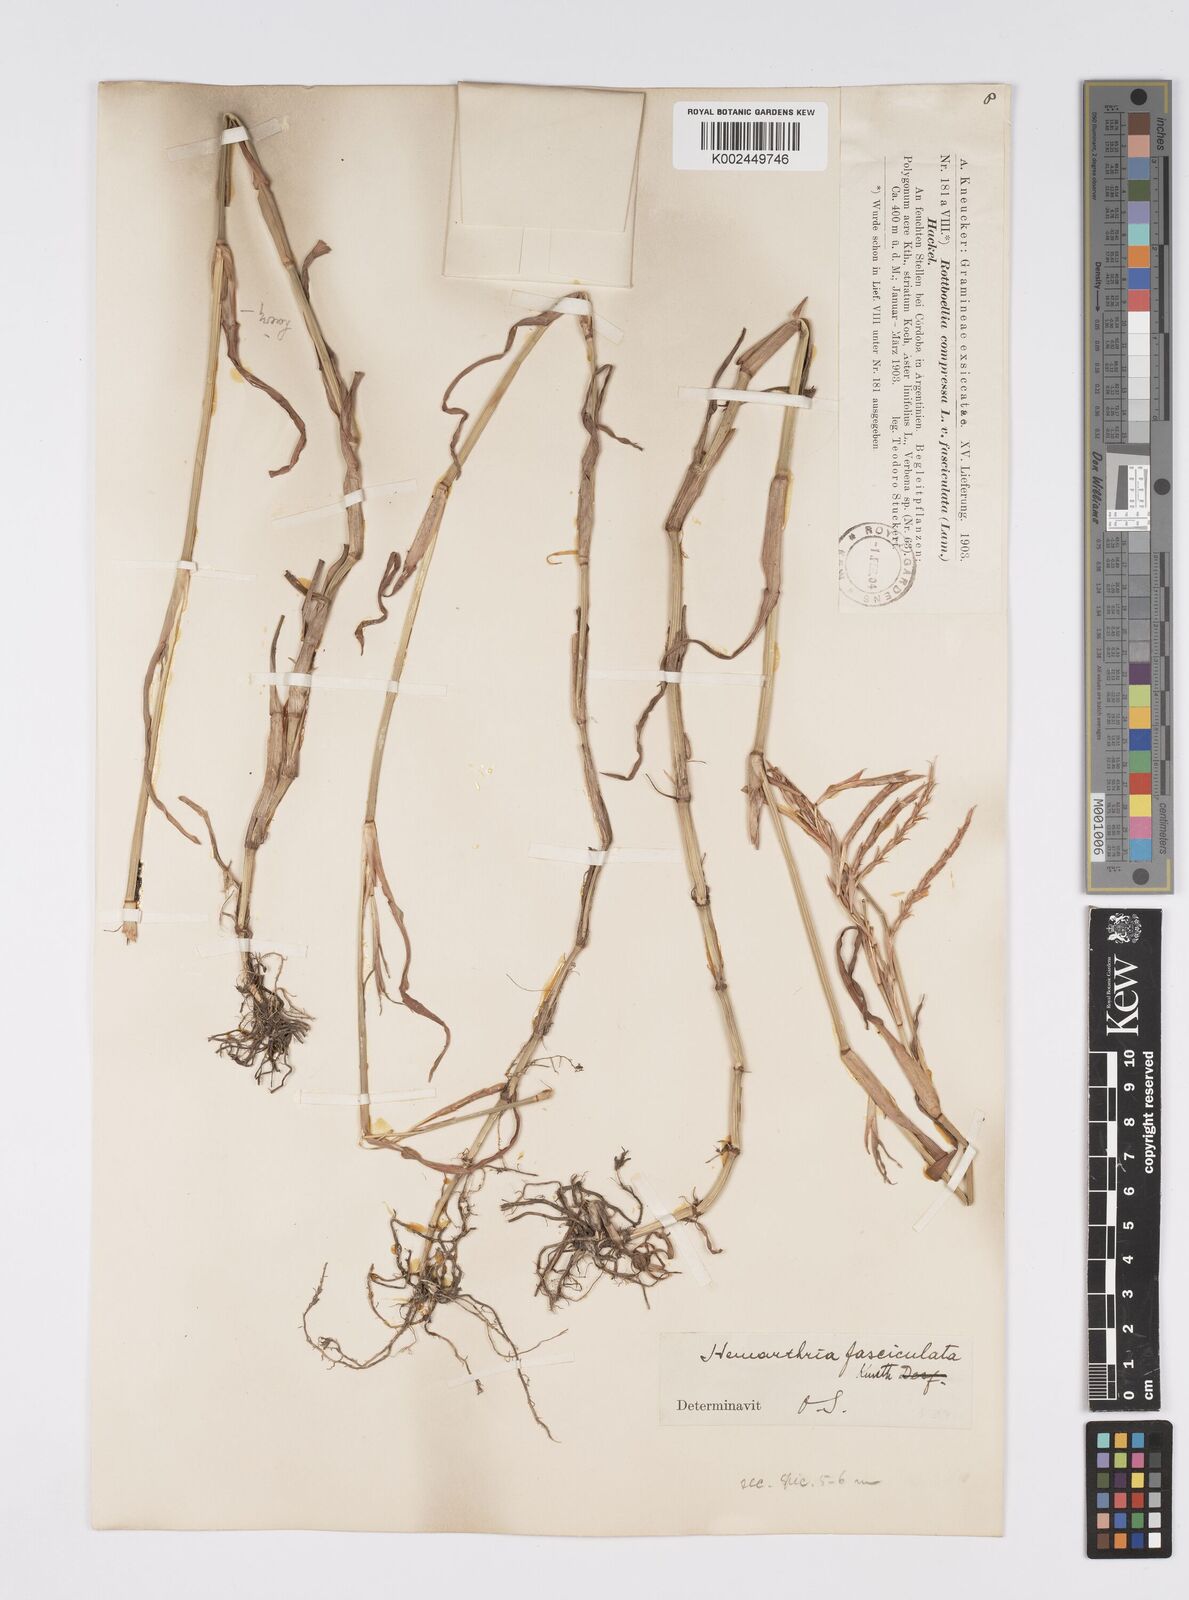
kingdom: Plantae
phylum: Tracheophyta
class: Liliopsida
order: Poales
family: Poaceae
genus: Hemarthria
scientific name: Hemarthria altissima
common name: African jointgrass
